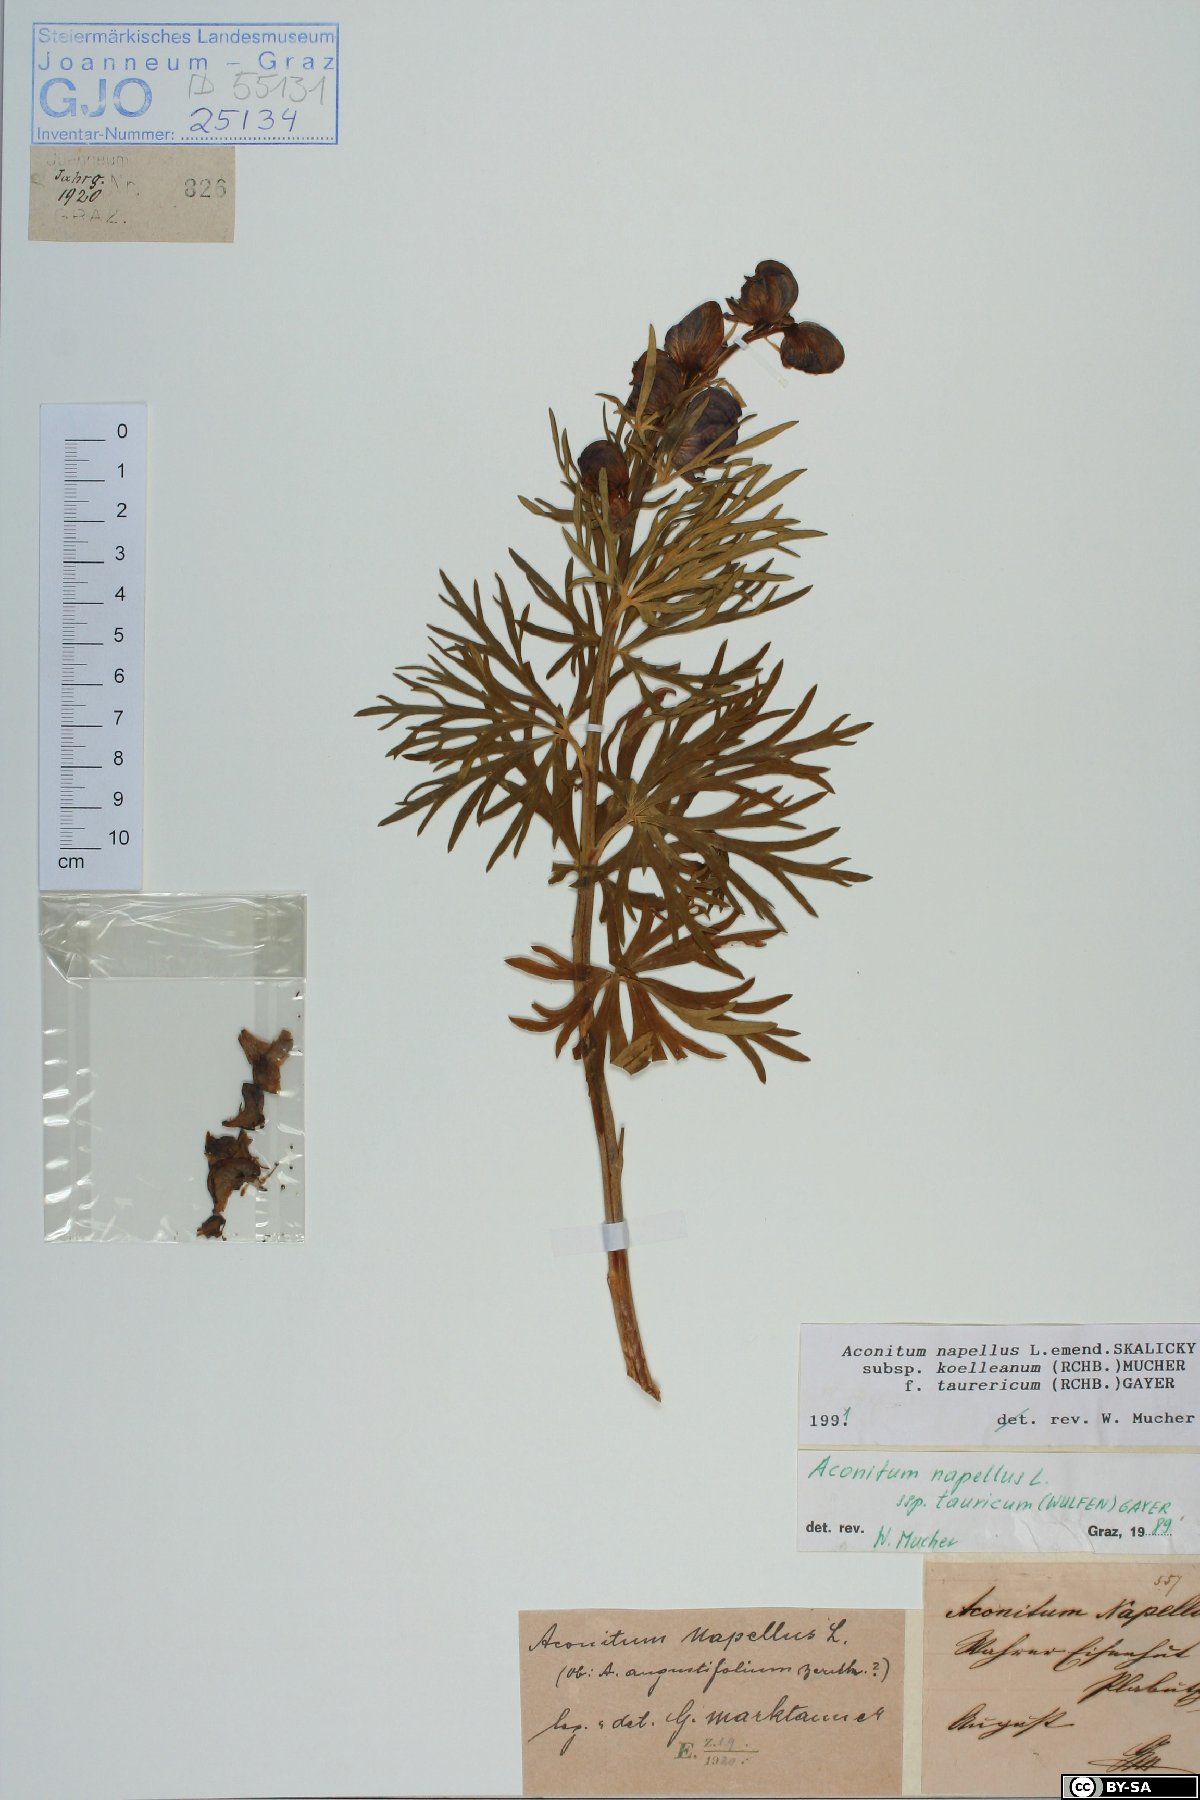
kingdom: Plantae
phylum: Tracheophyta
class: Magnoliopsida
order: Ranunculales
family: Ranunculaceae
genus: Aconitum
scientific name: Aconitum tauricum
